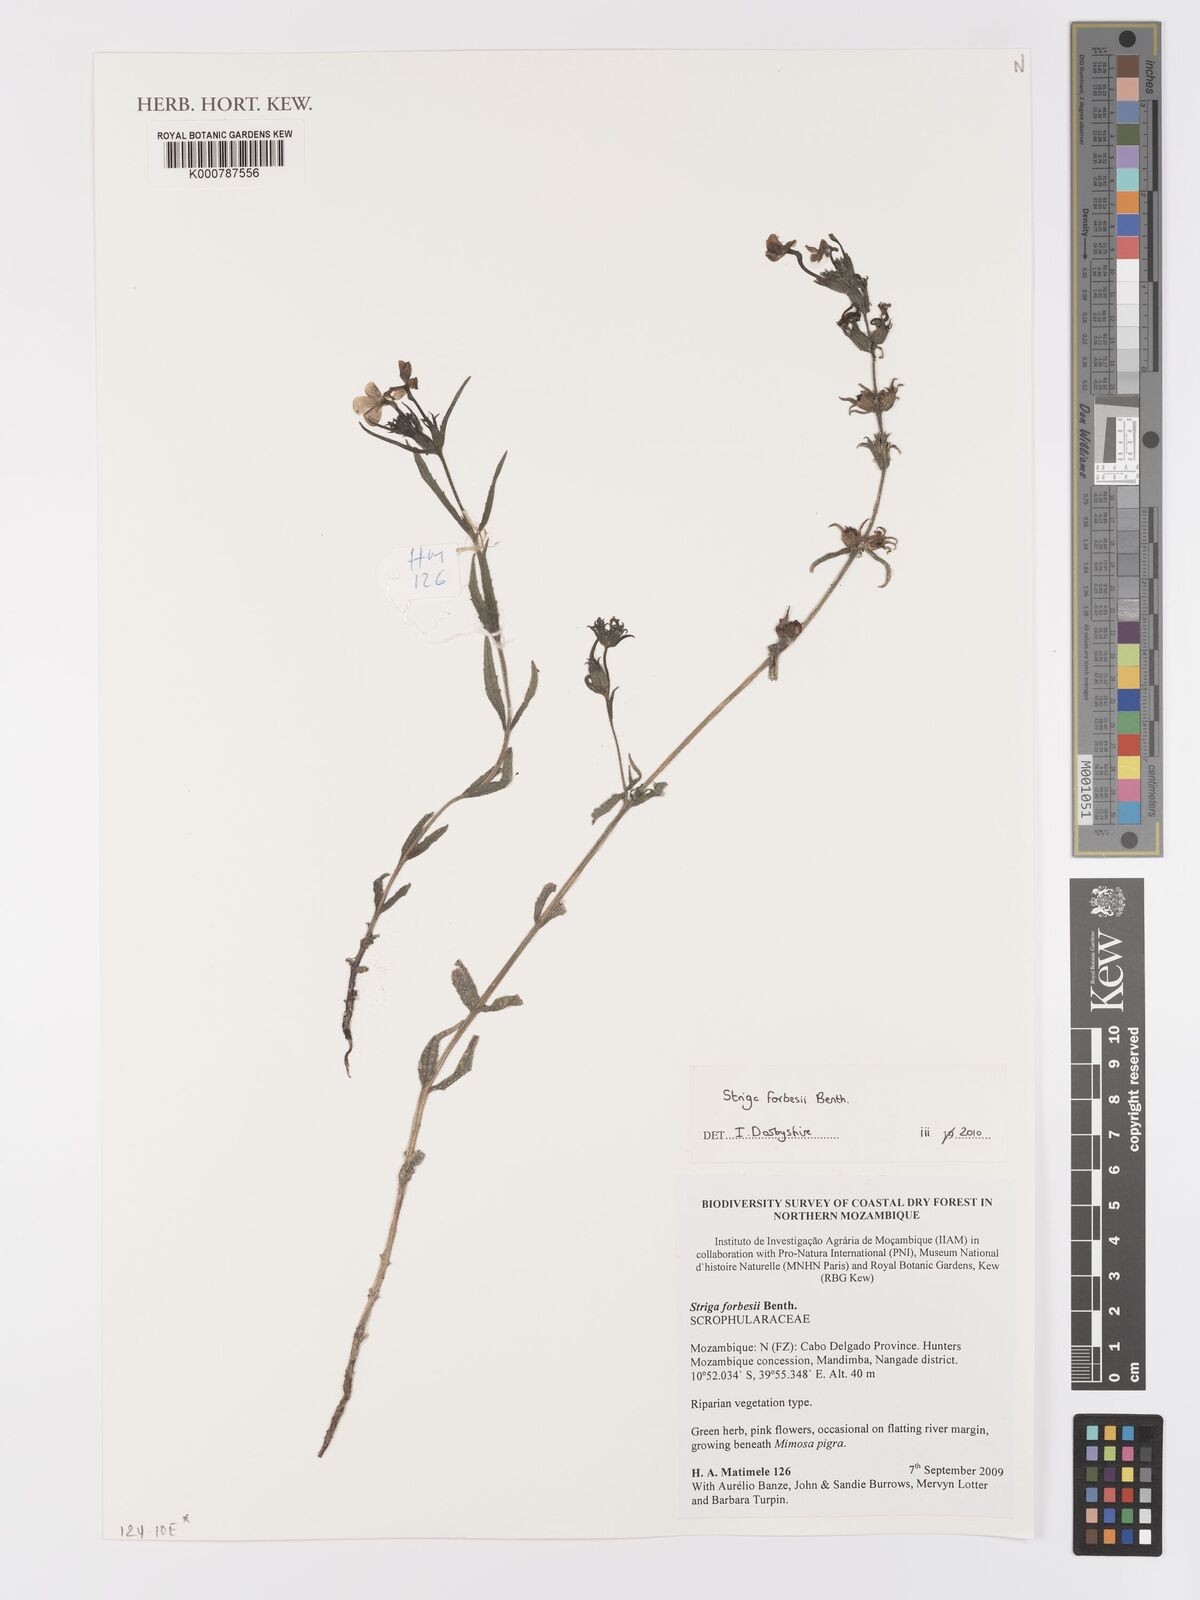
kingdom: Plantae
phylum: Tracheophyta
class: Liliopsida
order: Alismatales
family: Araceae
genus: Gamogyne
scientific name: Gamogyne burbidgei
